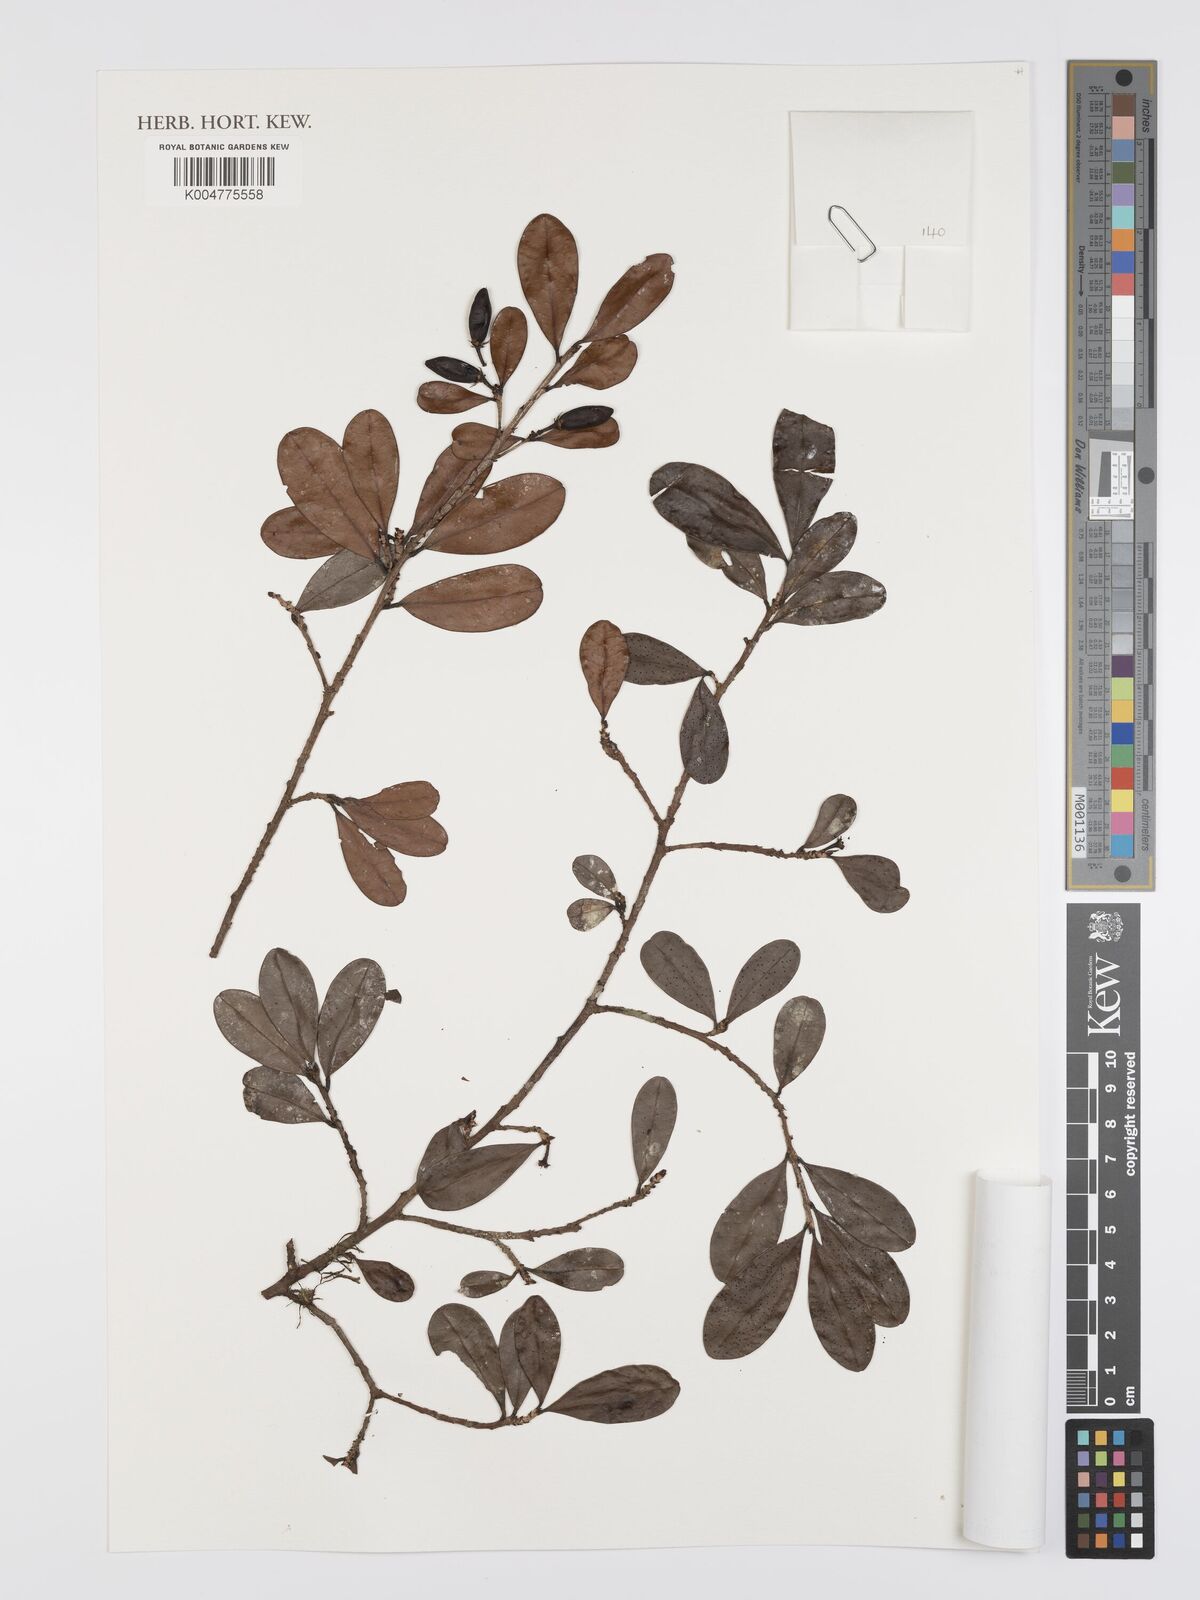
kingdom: Plantae
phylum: Tracheophyta
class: Magnoliopsida
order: Malpighiales
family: Erythroxylaceae
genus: Erythroxylum
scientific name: Erythroxylum ferrugineum
